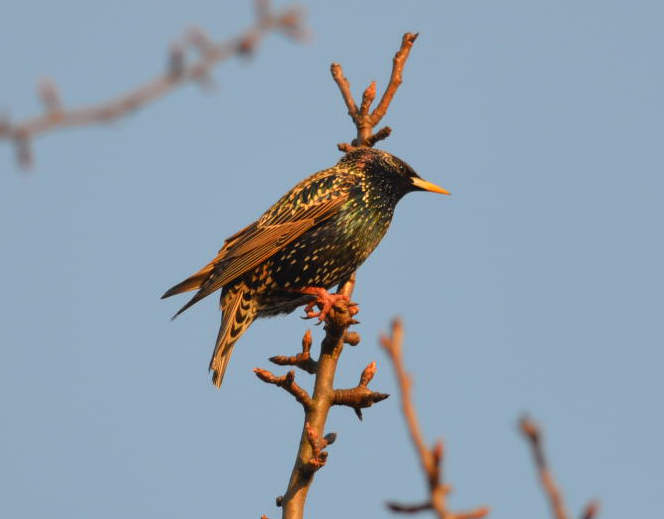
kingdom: Animalia
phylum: Chordata
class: Aves
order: Passeriformes
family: Sturnidae
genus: Sturnus
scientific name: Sturnus vulgaris
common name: Common starling
